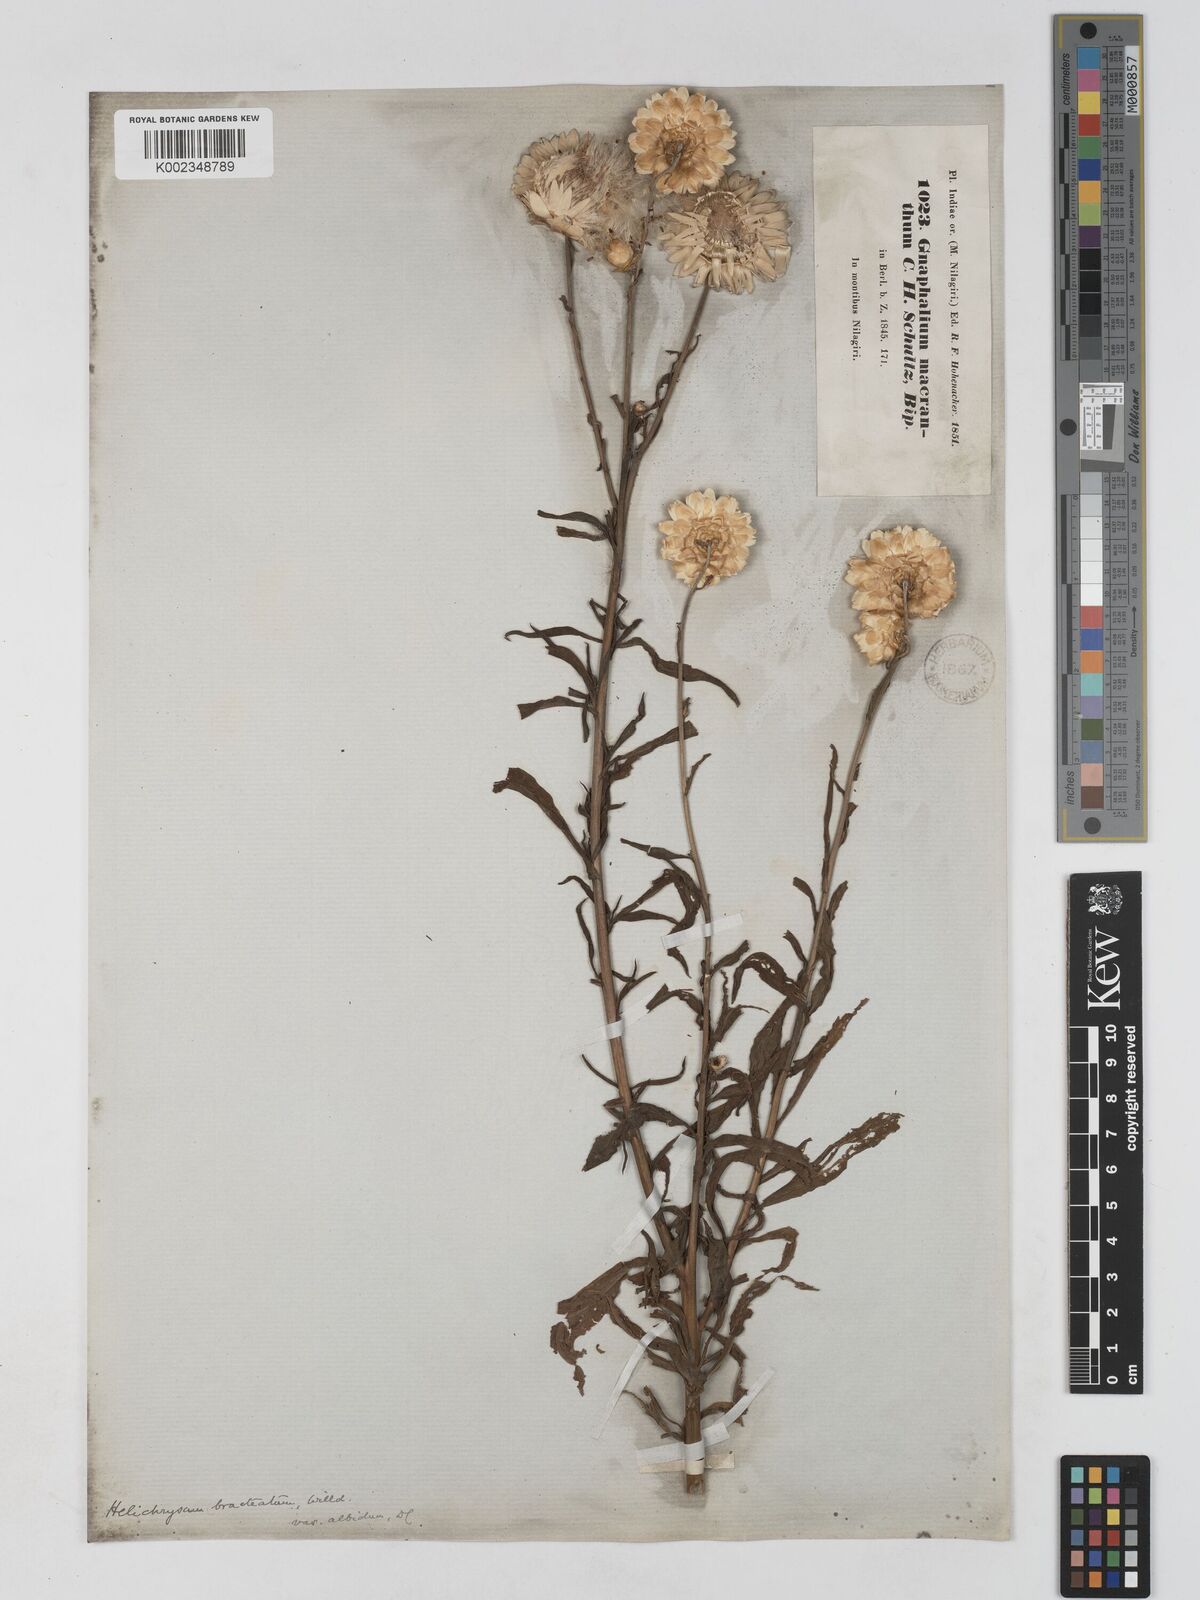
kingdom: Plantae
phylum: Tracheophyta
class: Magnoliopsida
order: Asterales
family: Asteraceae
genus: Xerochrysum
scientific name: Xerochrysum bracteatum
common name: Bracted strawflower
